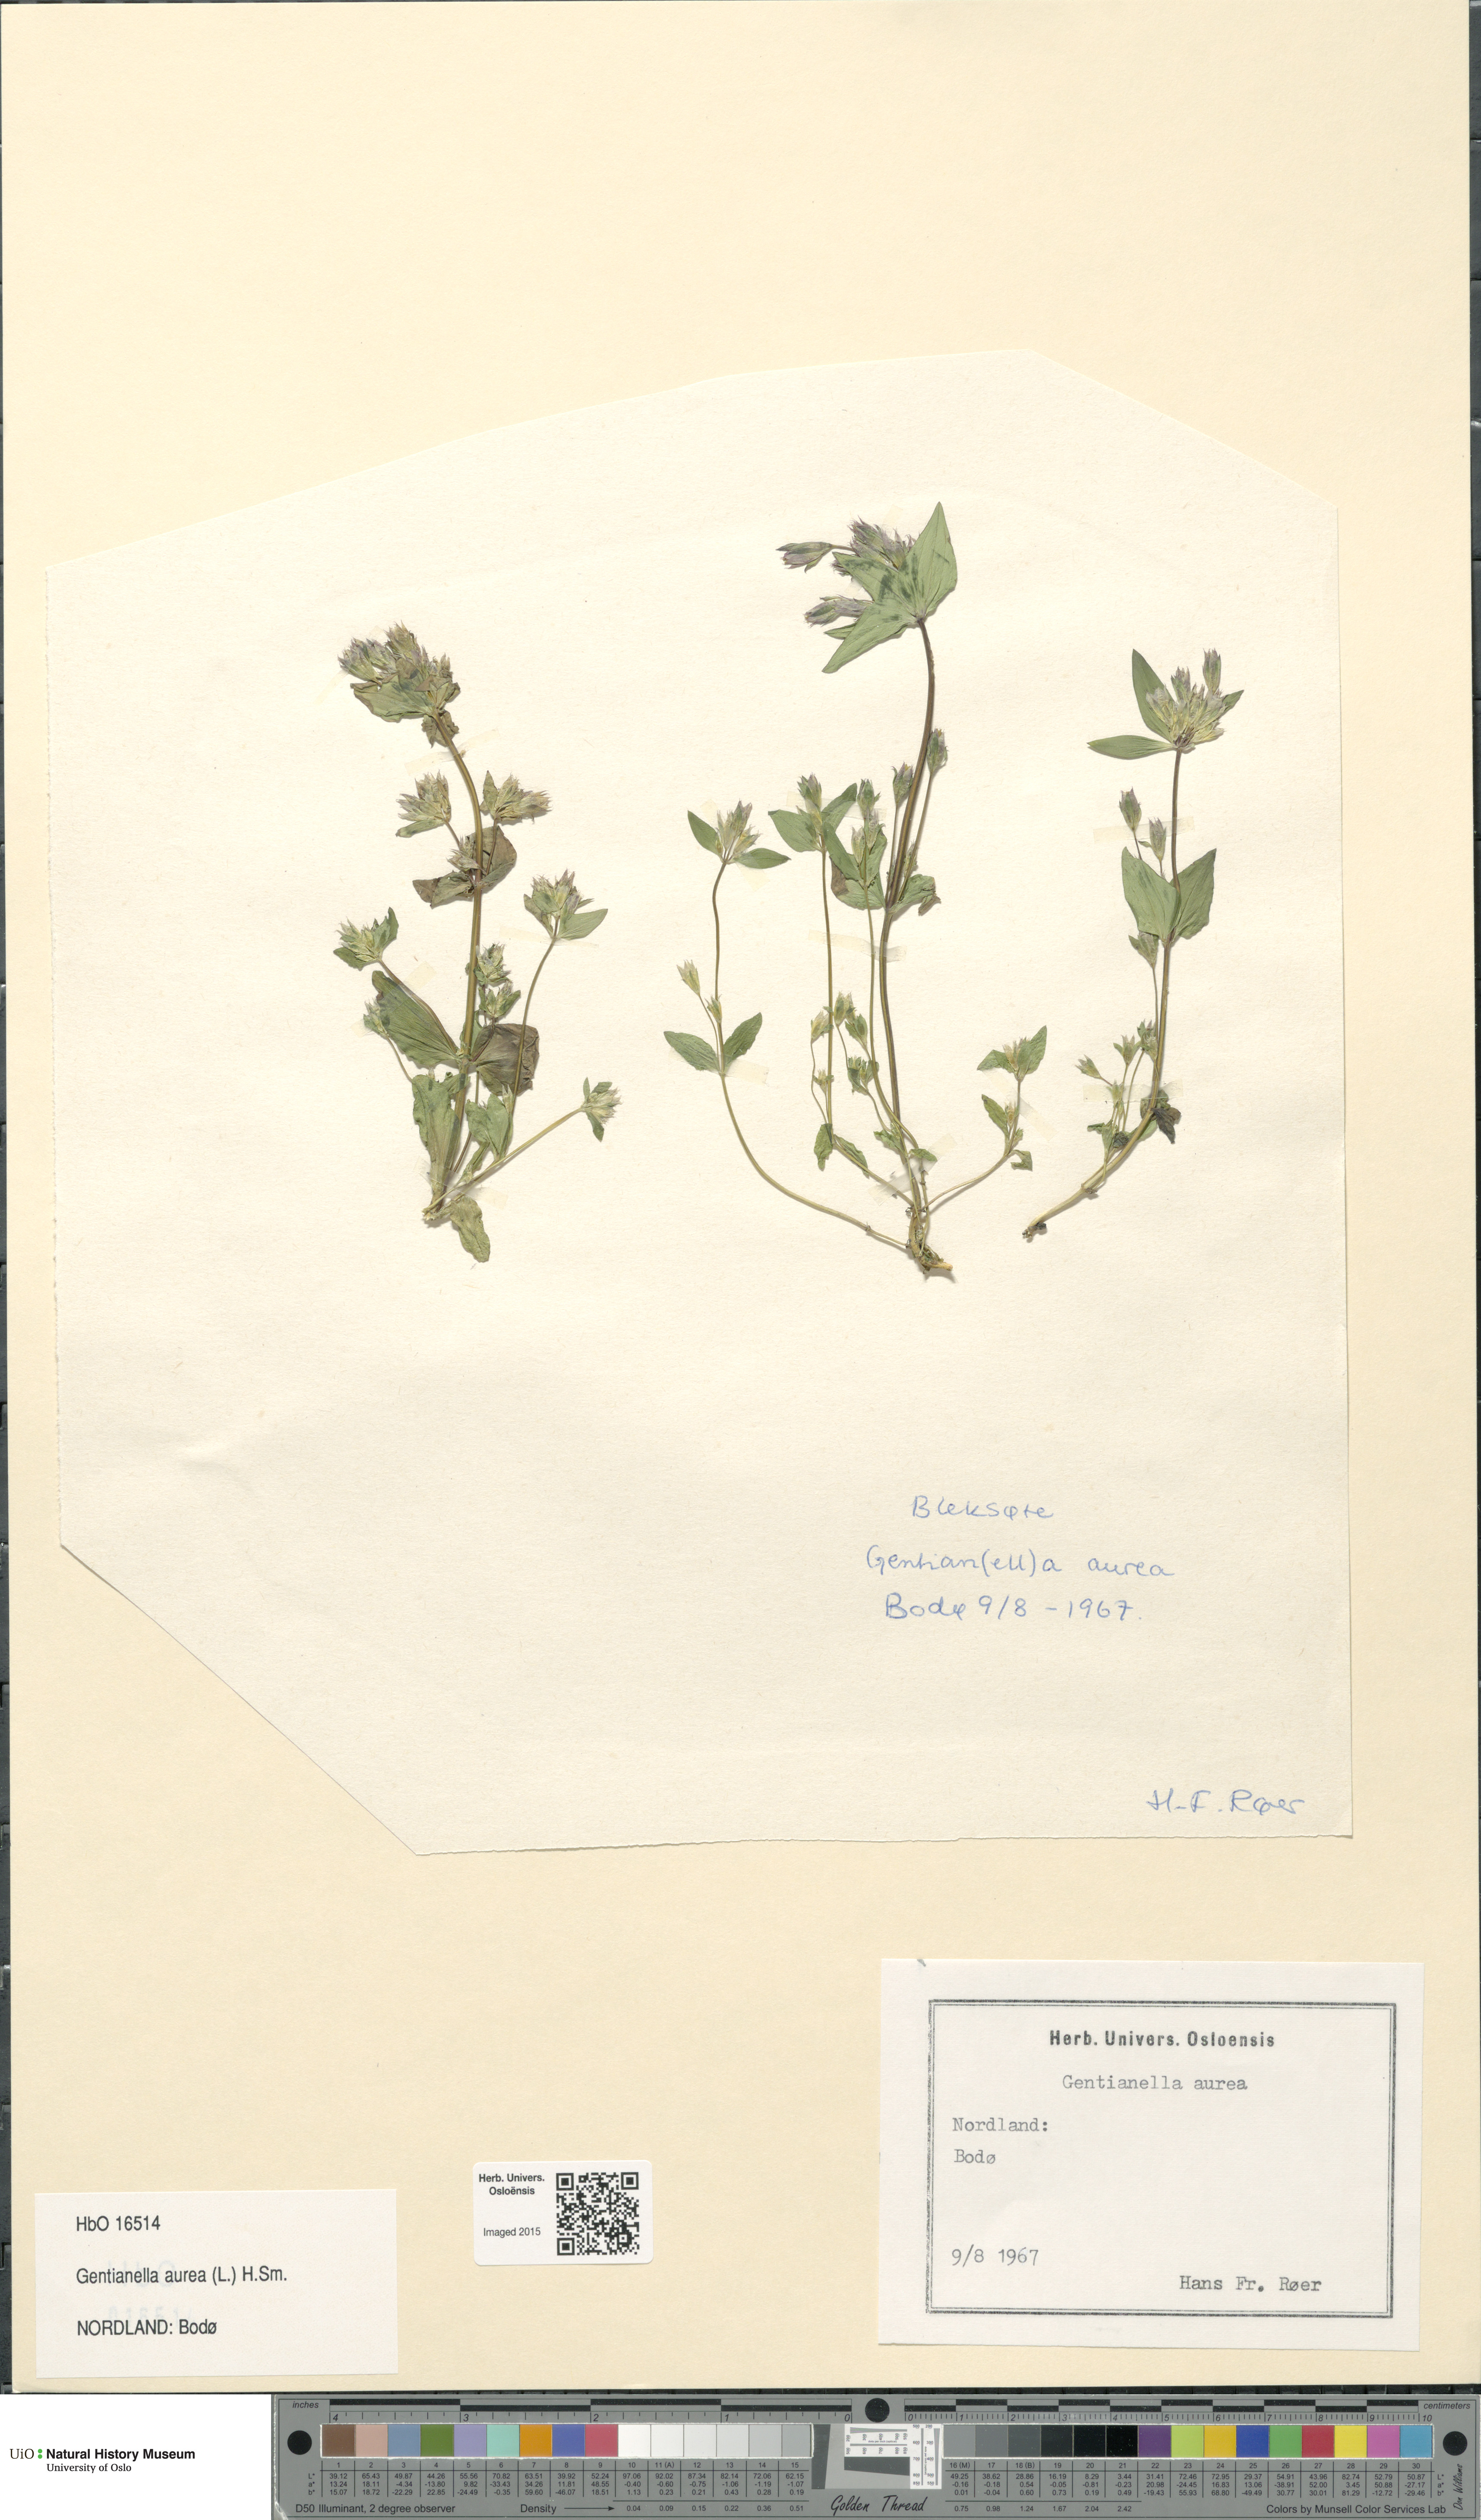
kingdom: Plantae
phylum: Tracheophyta
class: Magnoliopsida
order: Gentianales
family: Gentianaceae
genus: Gentianella
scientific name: Gentianella aurea
